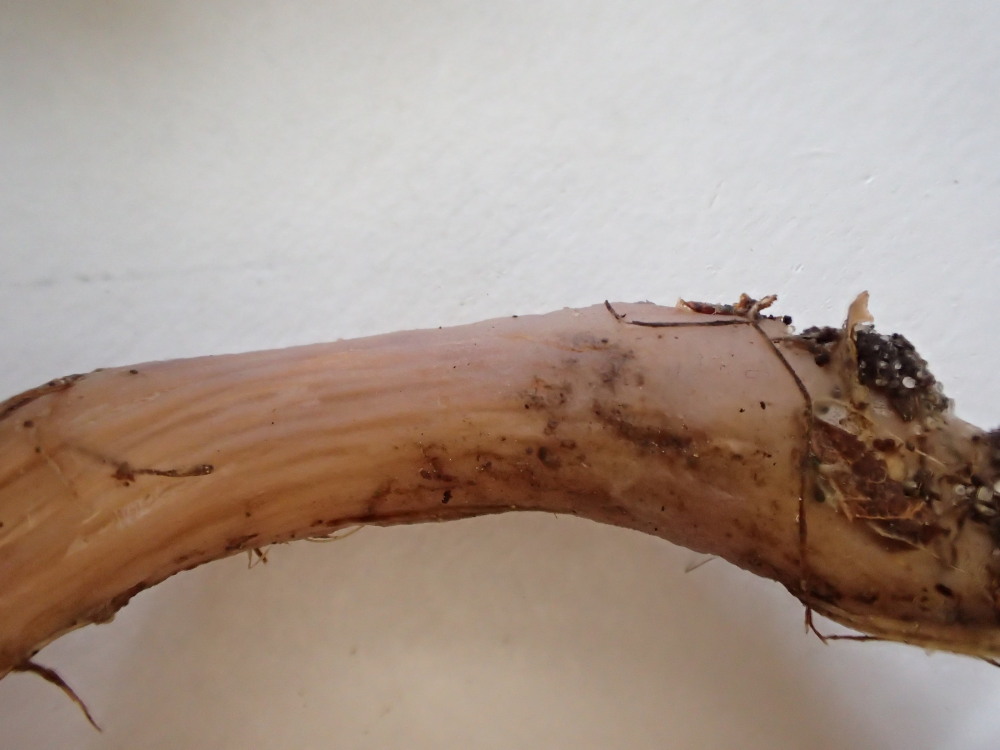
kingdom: Fungi
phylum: Basidiomycota
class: Agaricomycetes
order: Agaricales
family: Hydnangiaceae
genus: Laccaria
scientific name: Laccaria bicolor
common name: tvefarvet ametysthat
